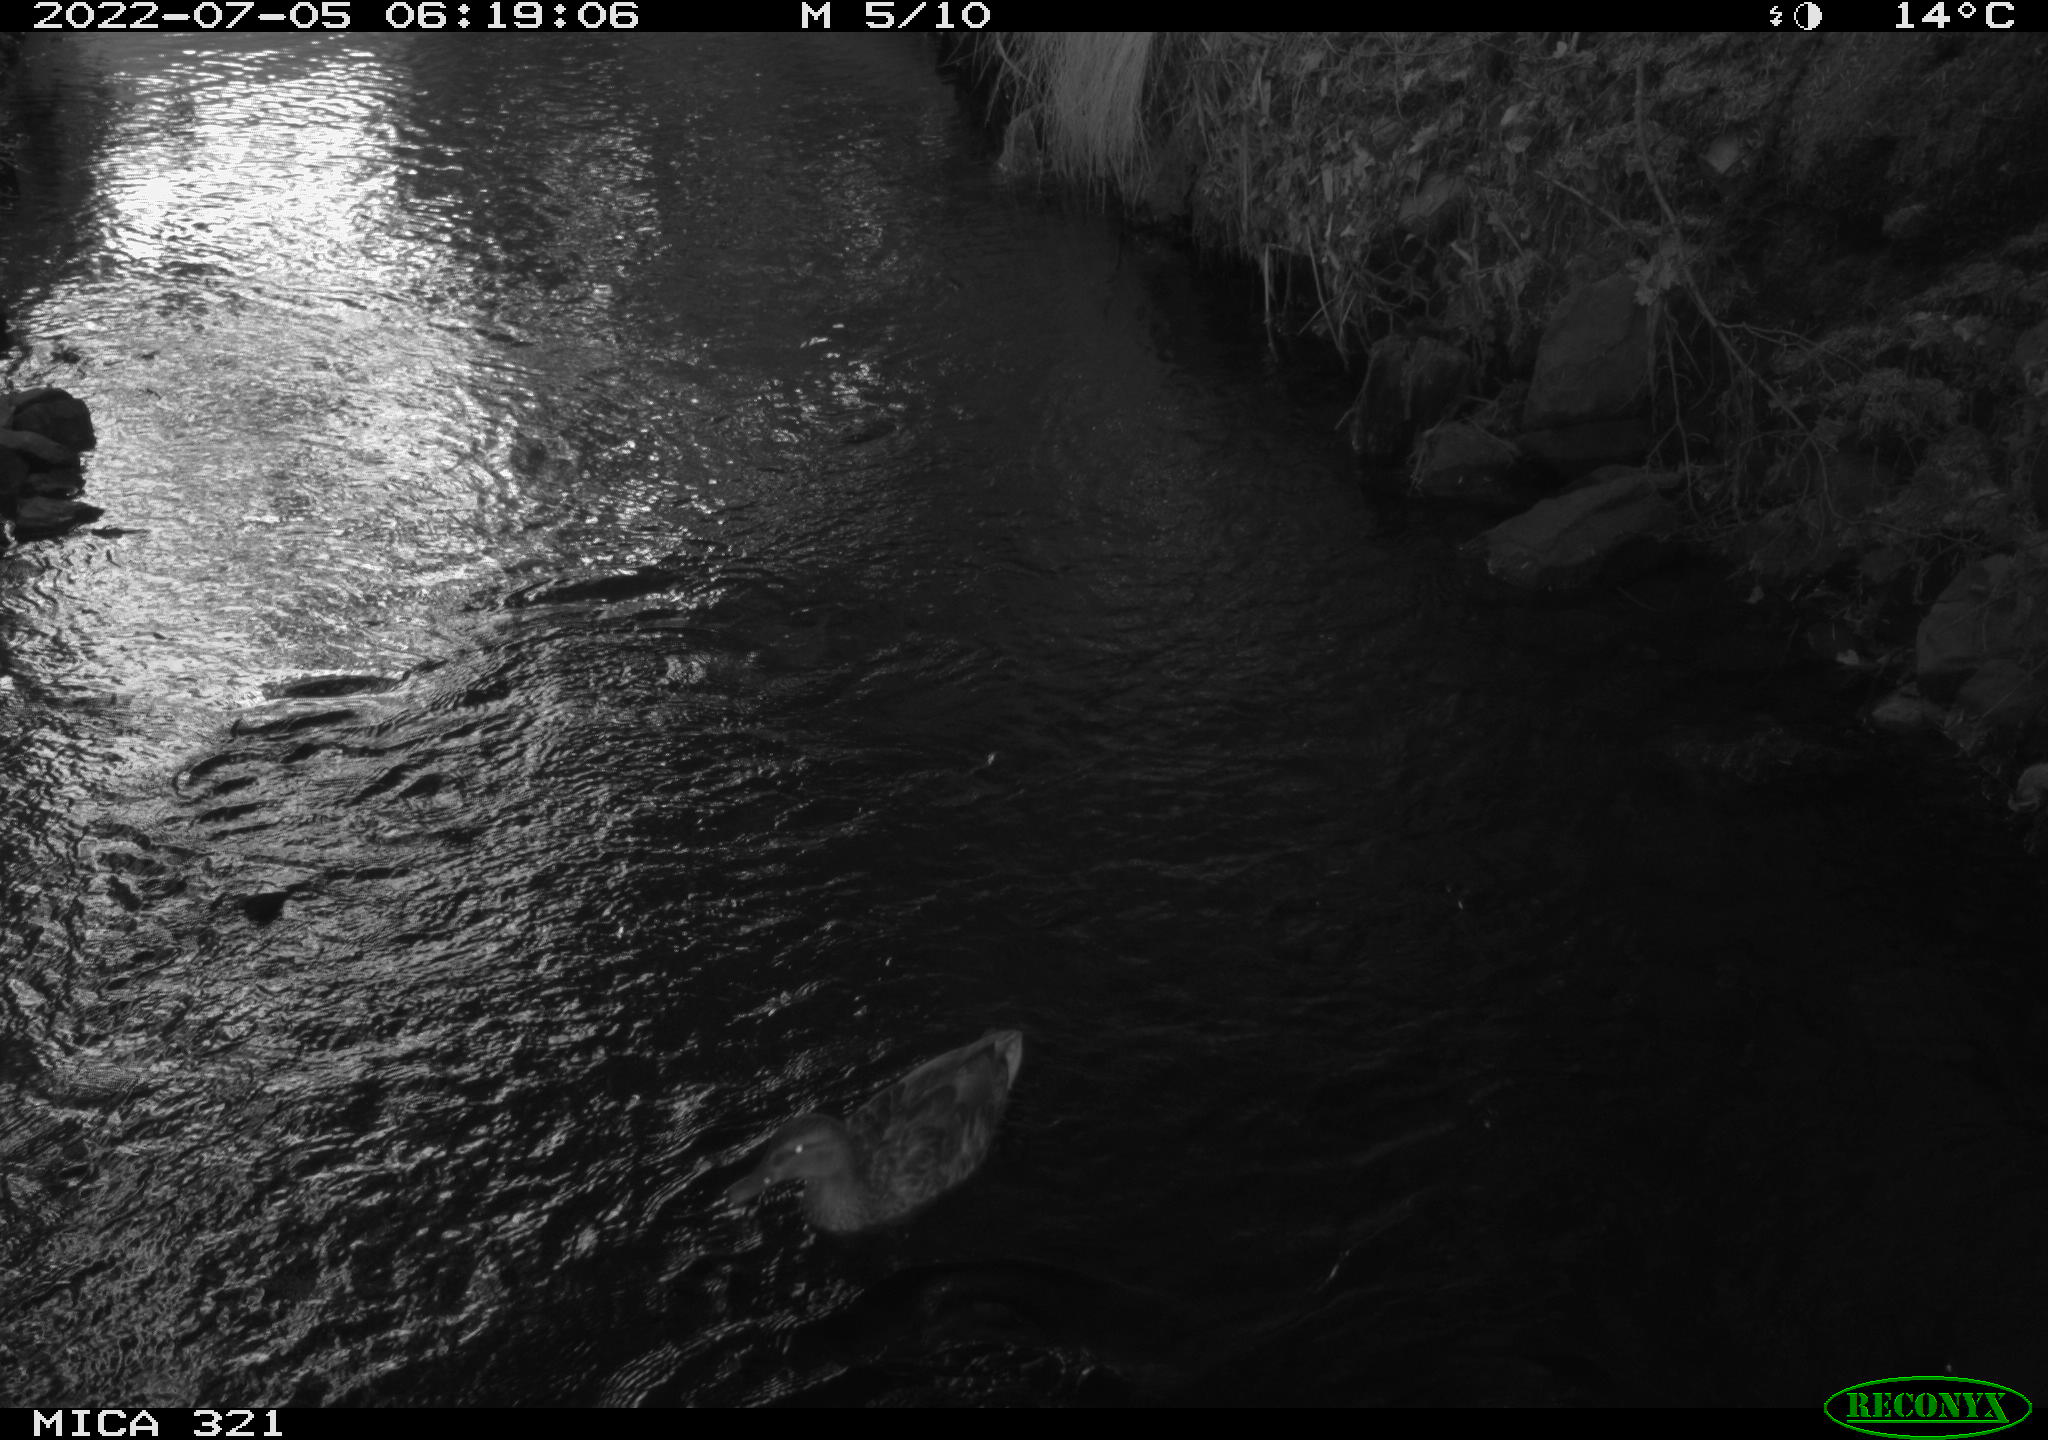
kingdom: Animalia
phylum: Chordata
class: Aves
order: Anseriformes
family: Anatidae
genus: Mareca
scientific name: Mareca strepera
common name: Gadwall
